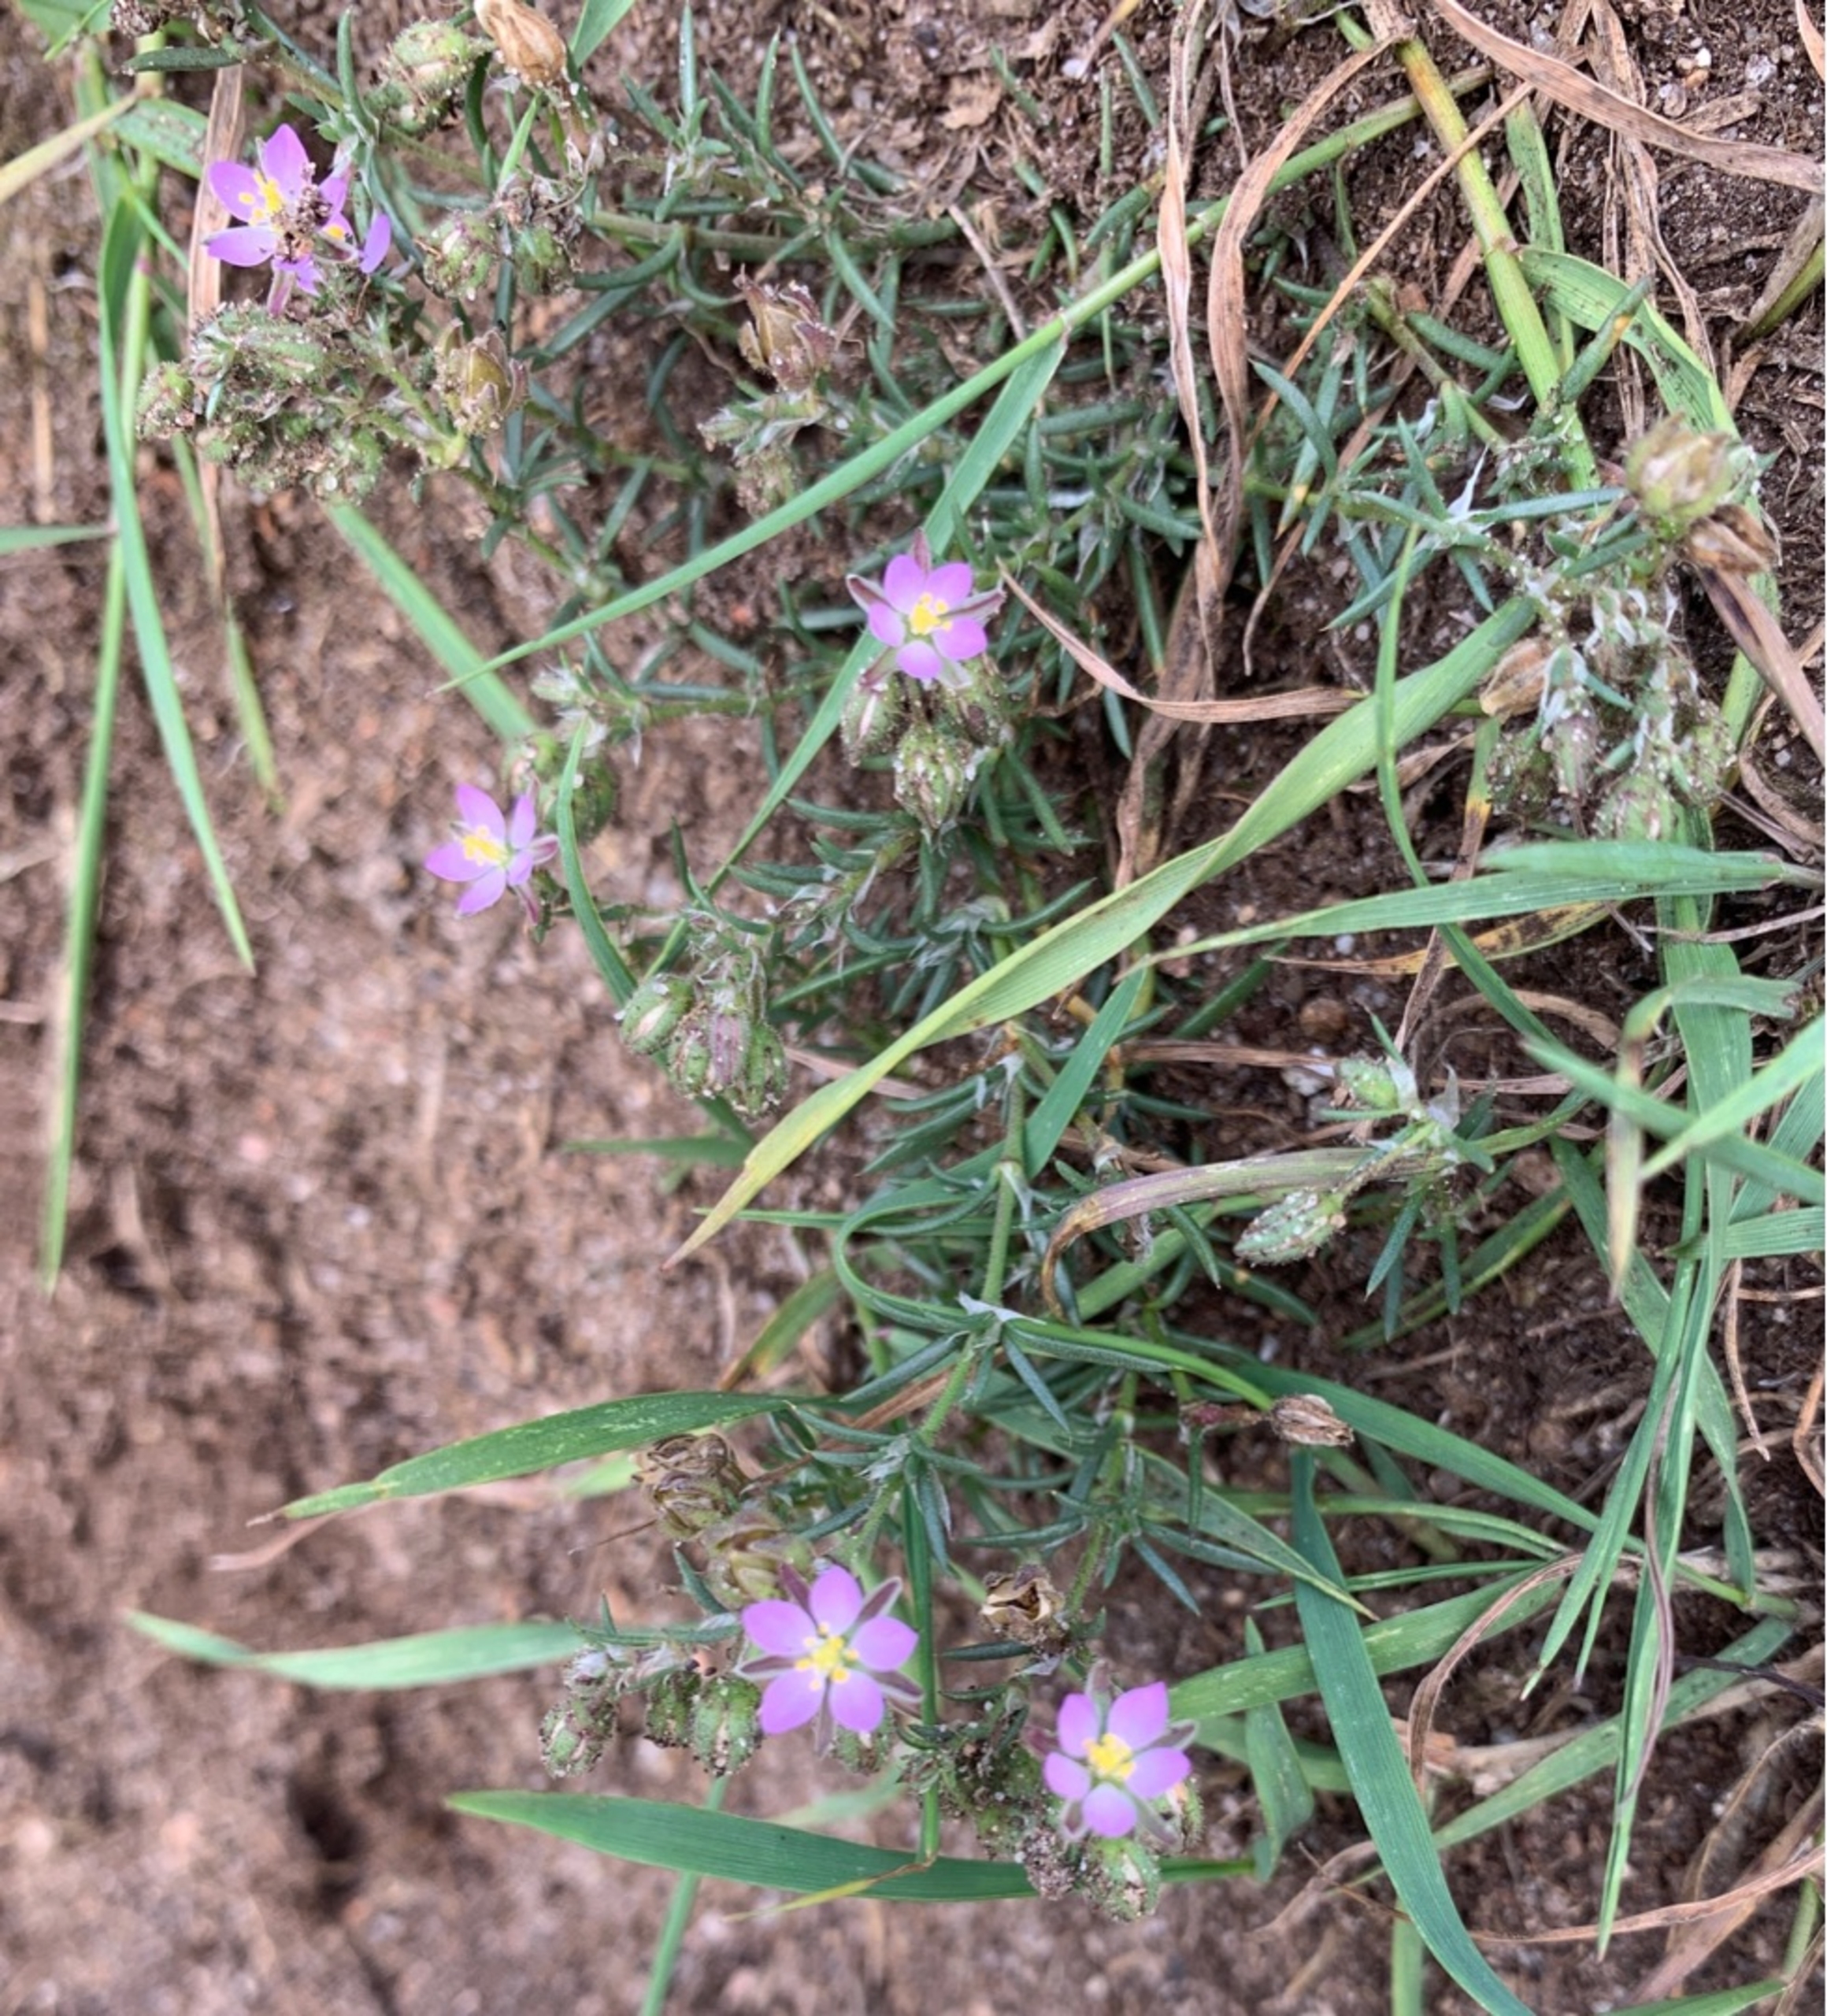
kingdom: Plantae
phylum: Tracheophyta
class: Magnoliopsida
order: Caryophyllales
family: Caryophyllaceae
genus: Spergularia
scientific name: Spergularia rubra
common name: Mark-hindeknæ
